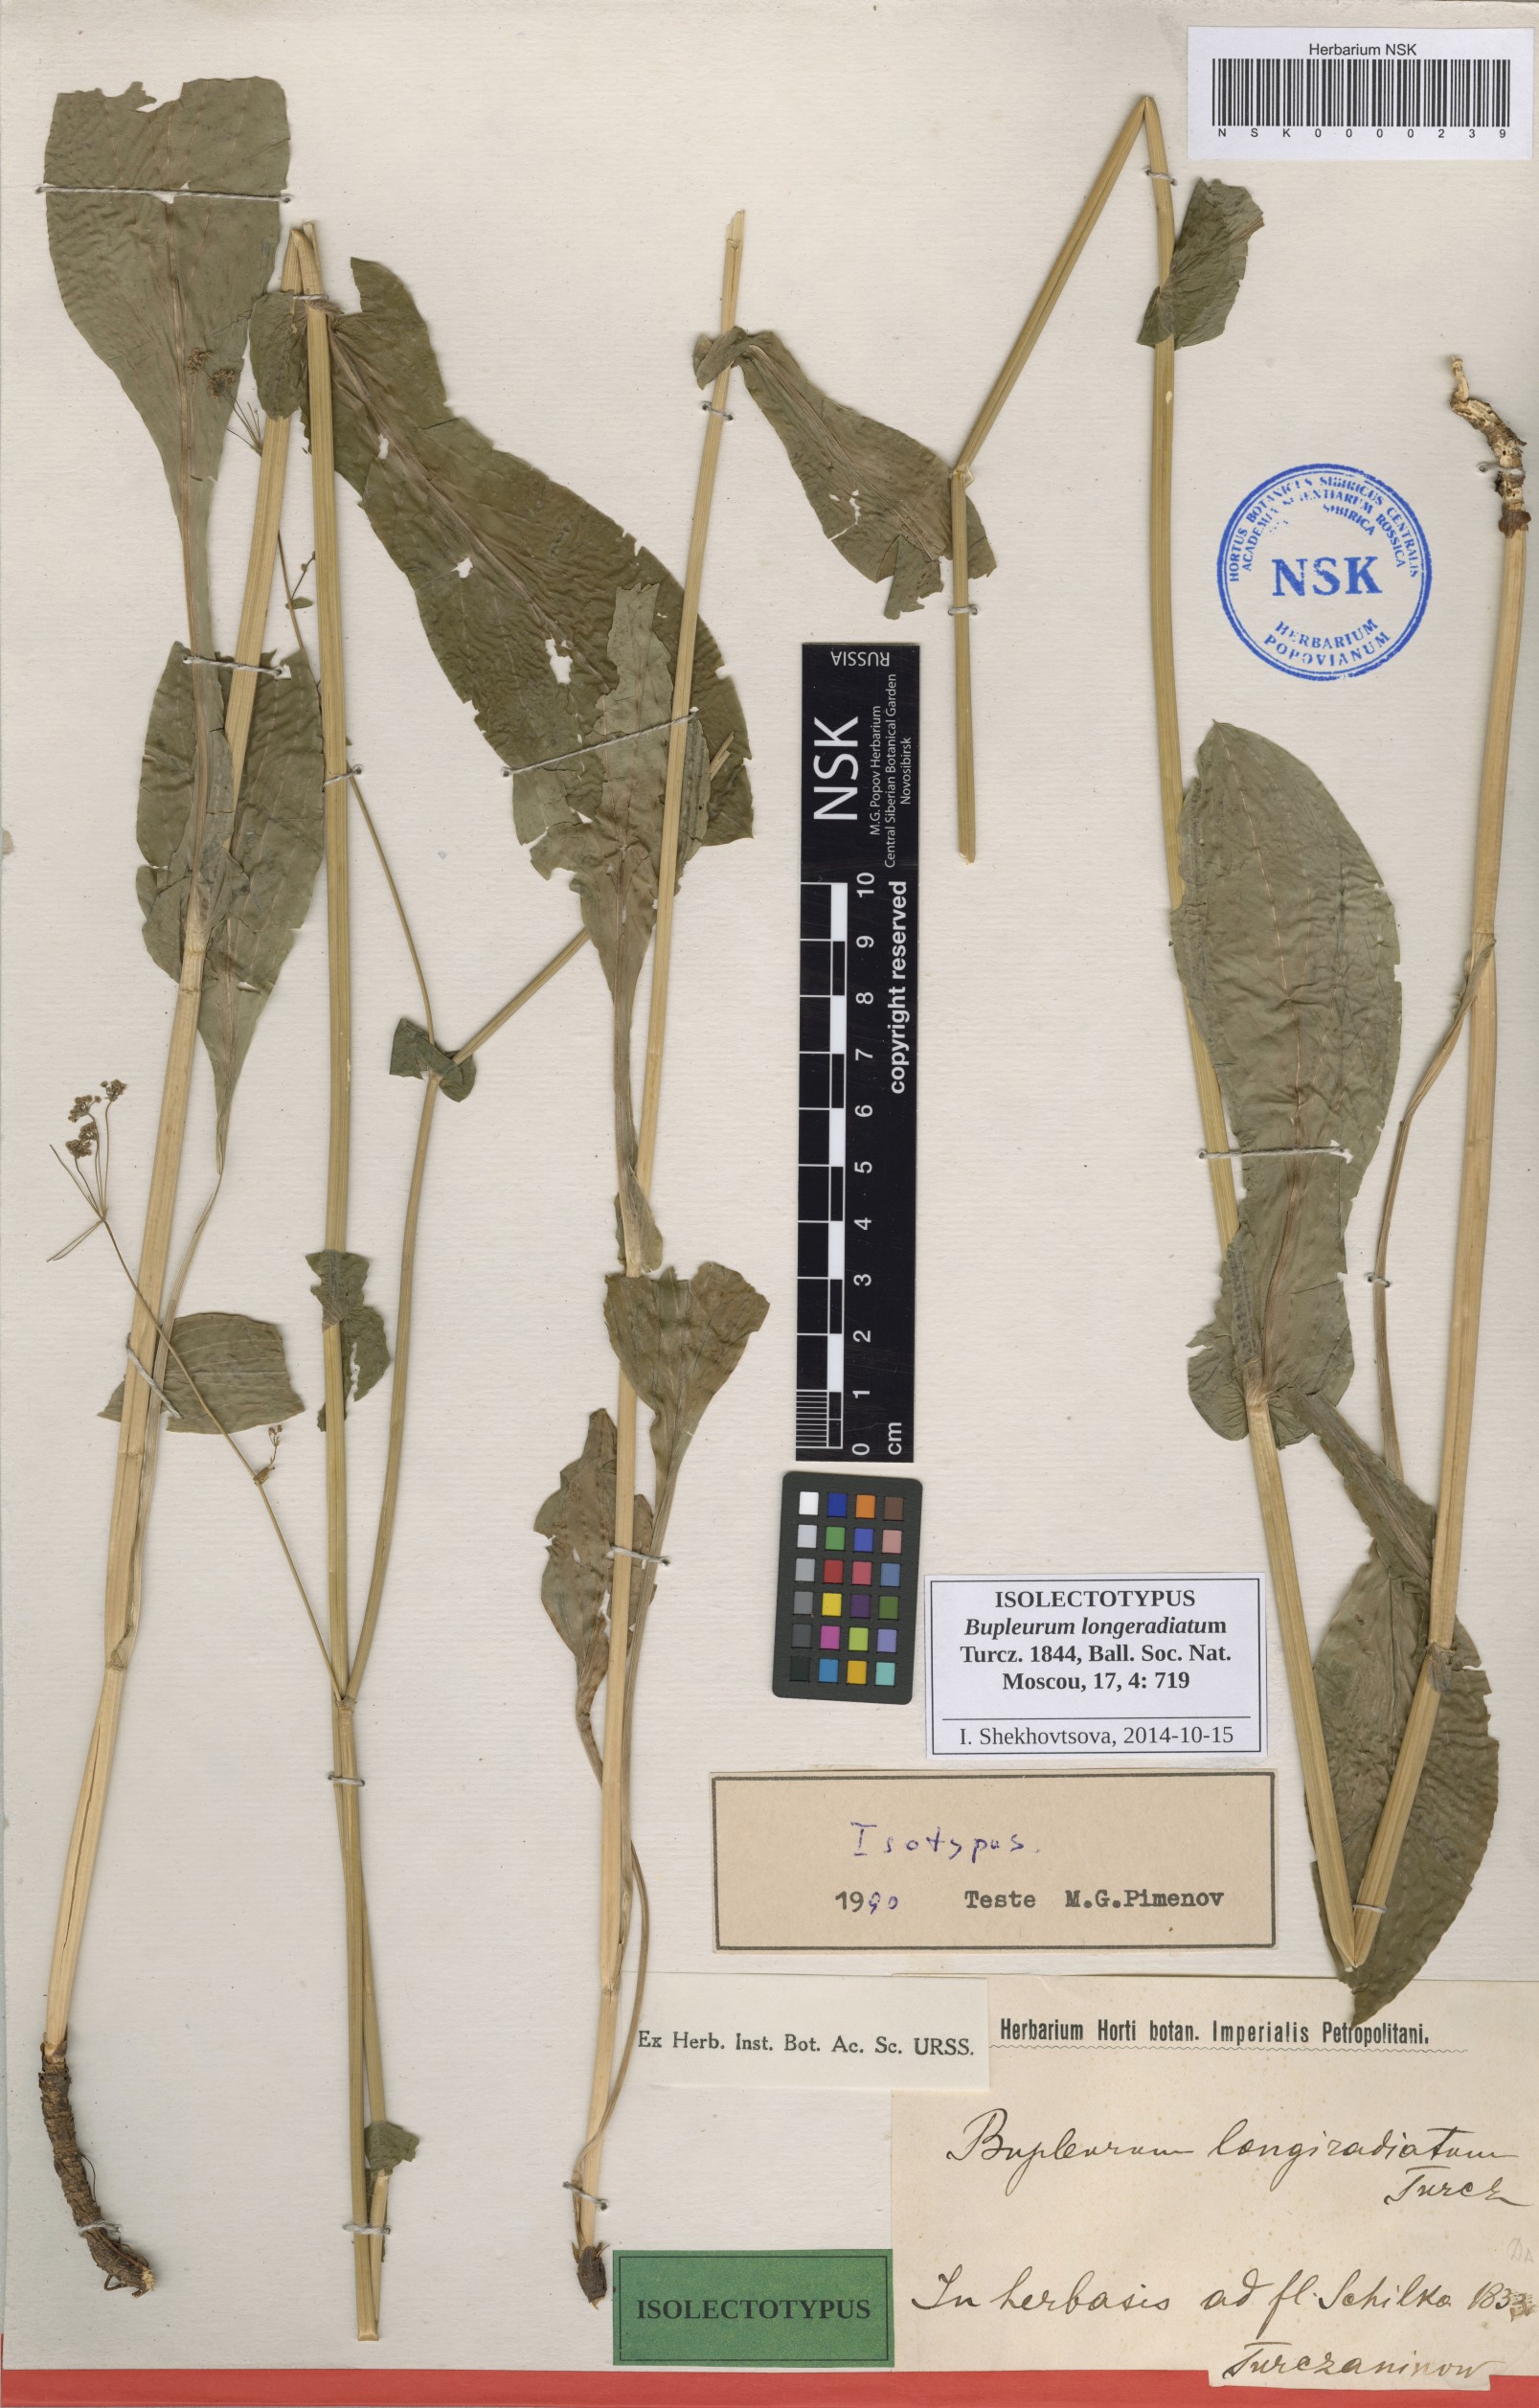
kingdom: Plantae
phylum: Tracheophyta
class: Magnoliopsida
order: Apiales
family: Apiaceae
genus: Bupleurum
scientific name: Bupleurum longeradiatum
